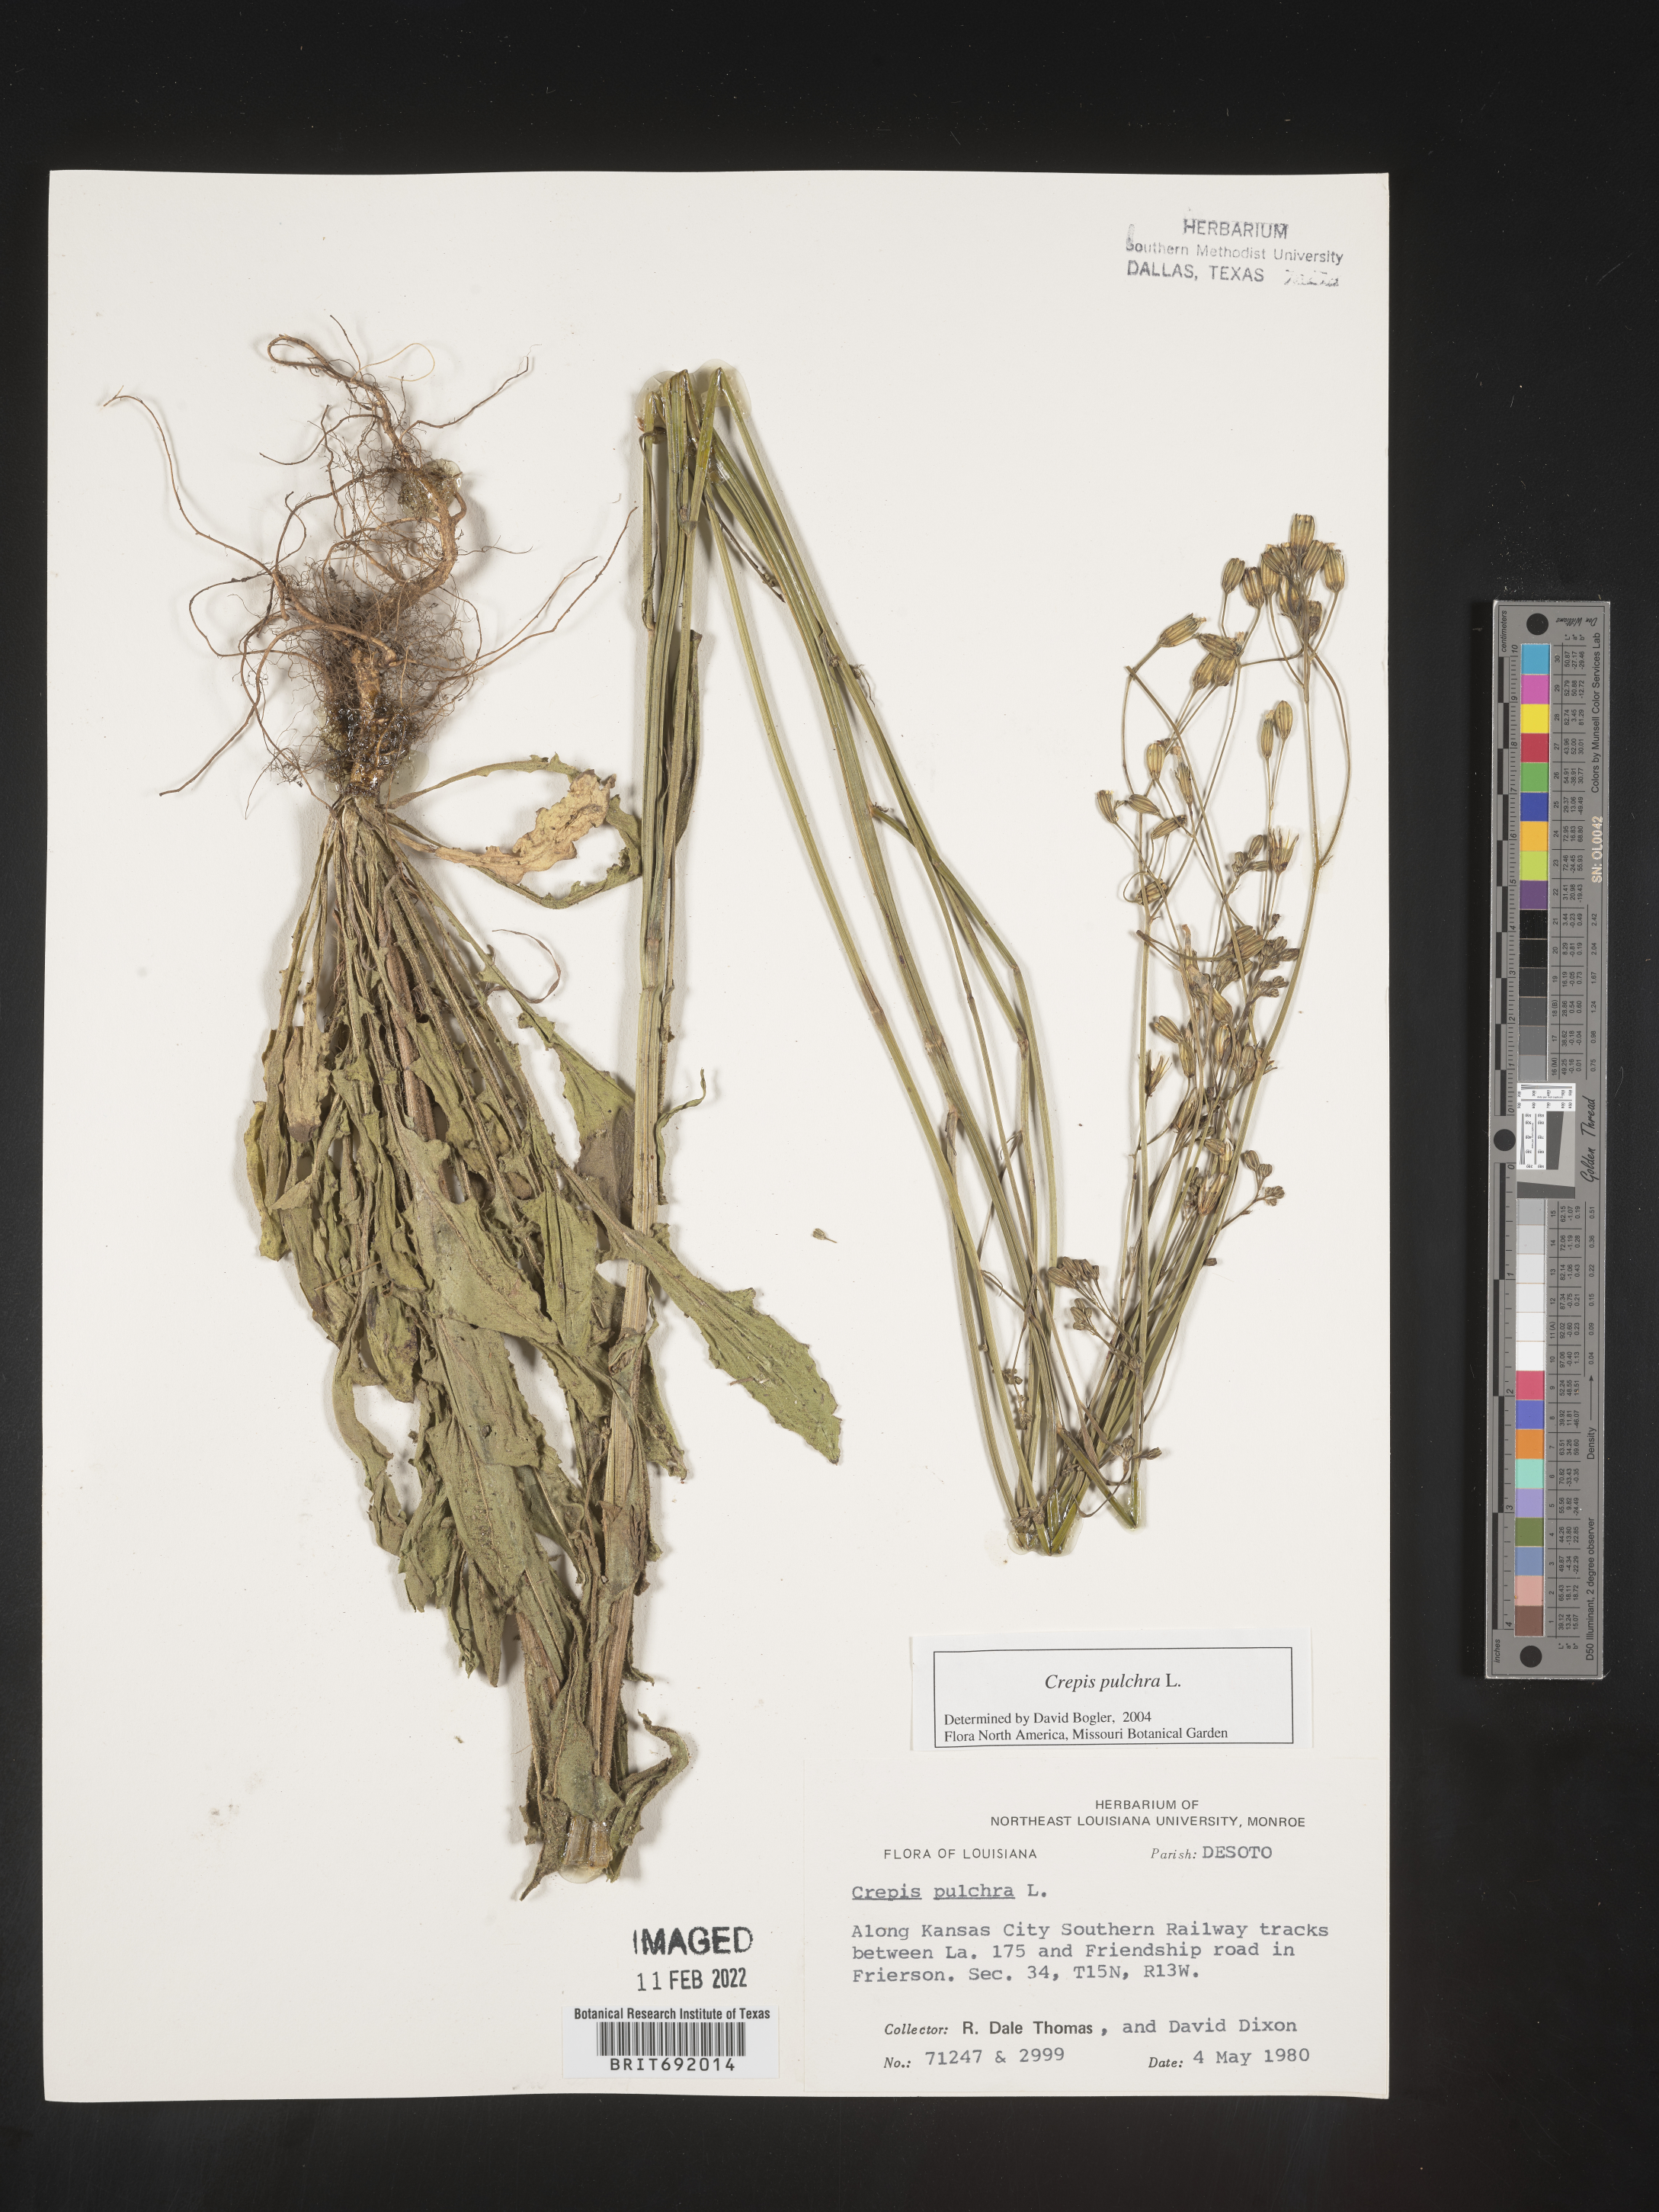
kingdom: Plantae
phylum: Tracheophyta
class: Magnoliopsida
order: Asterales
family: Asteraceae
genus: Crepis
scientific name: Crepis pulchra
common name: Hawk's-beard
